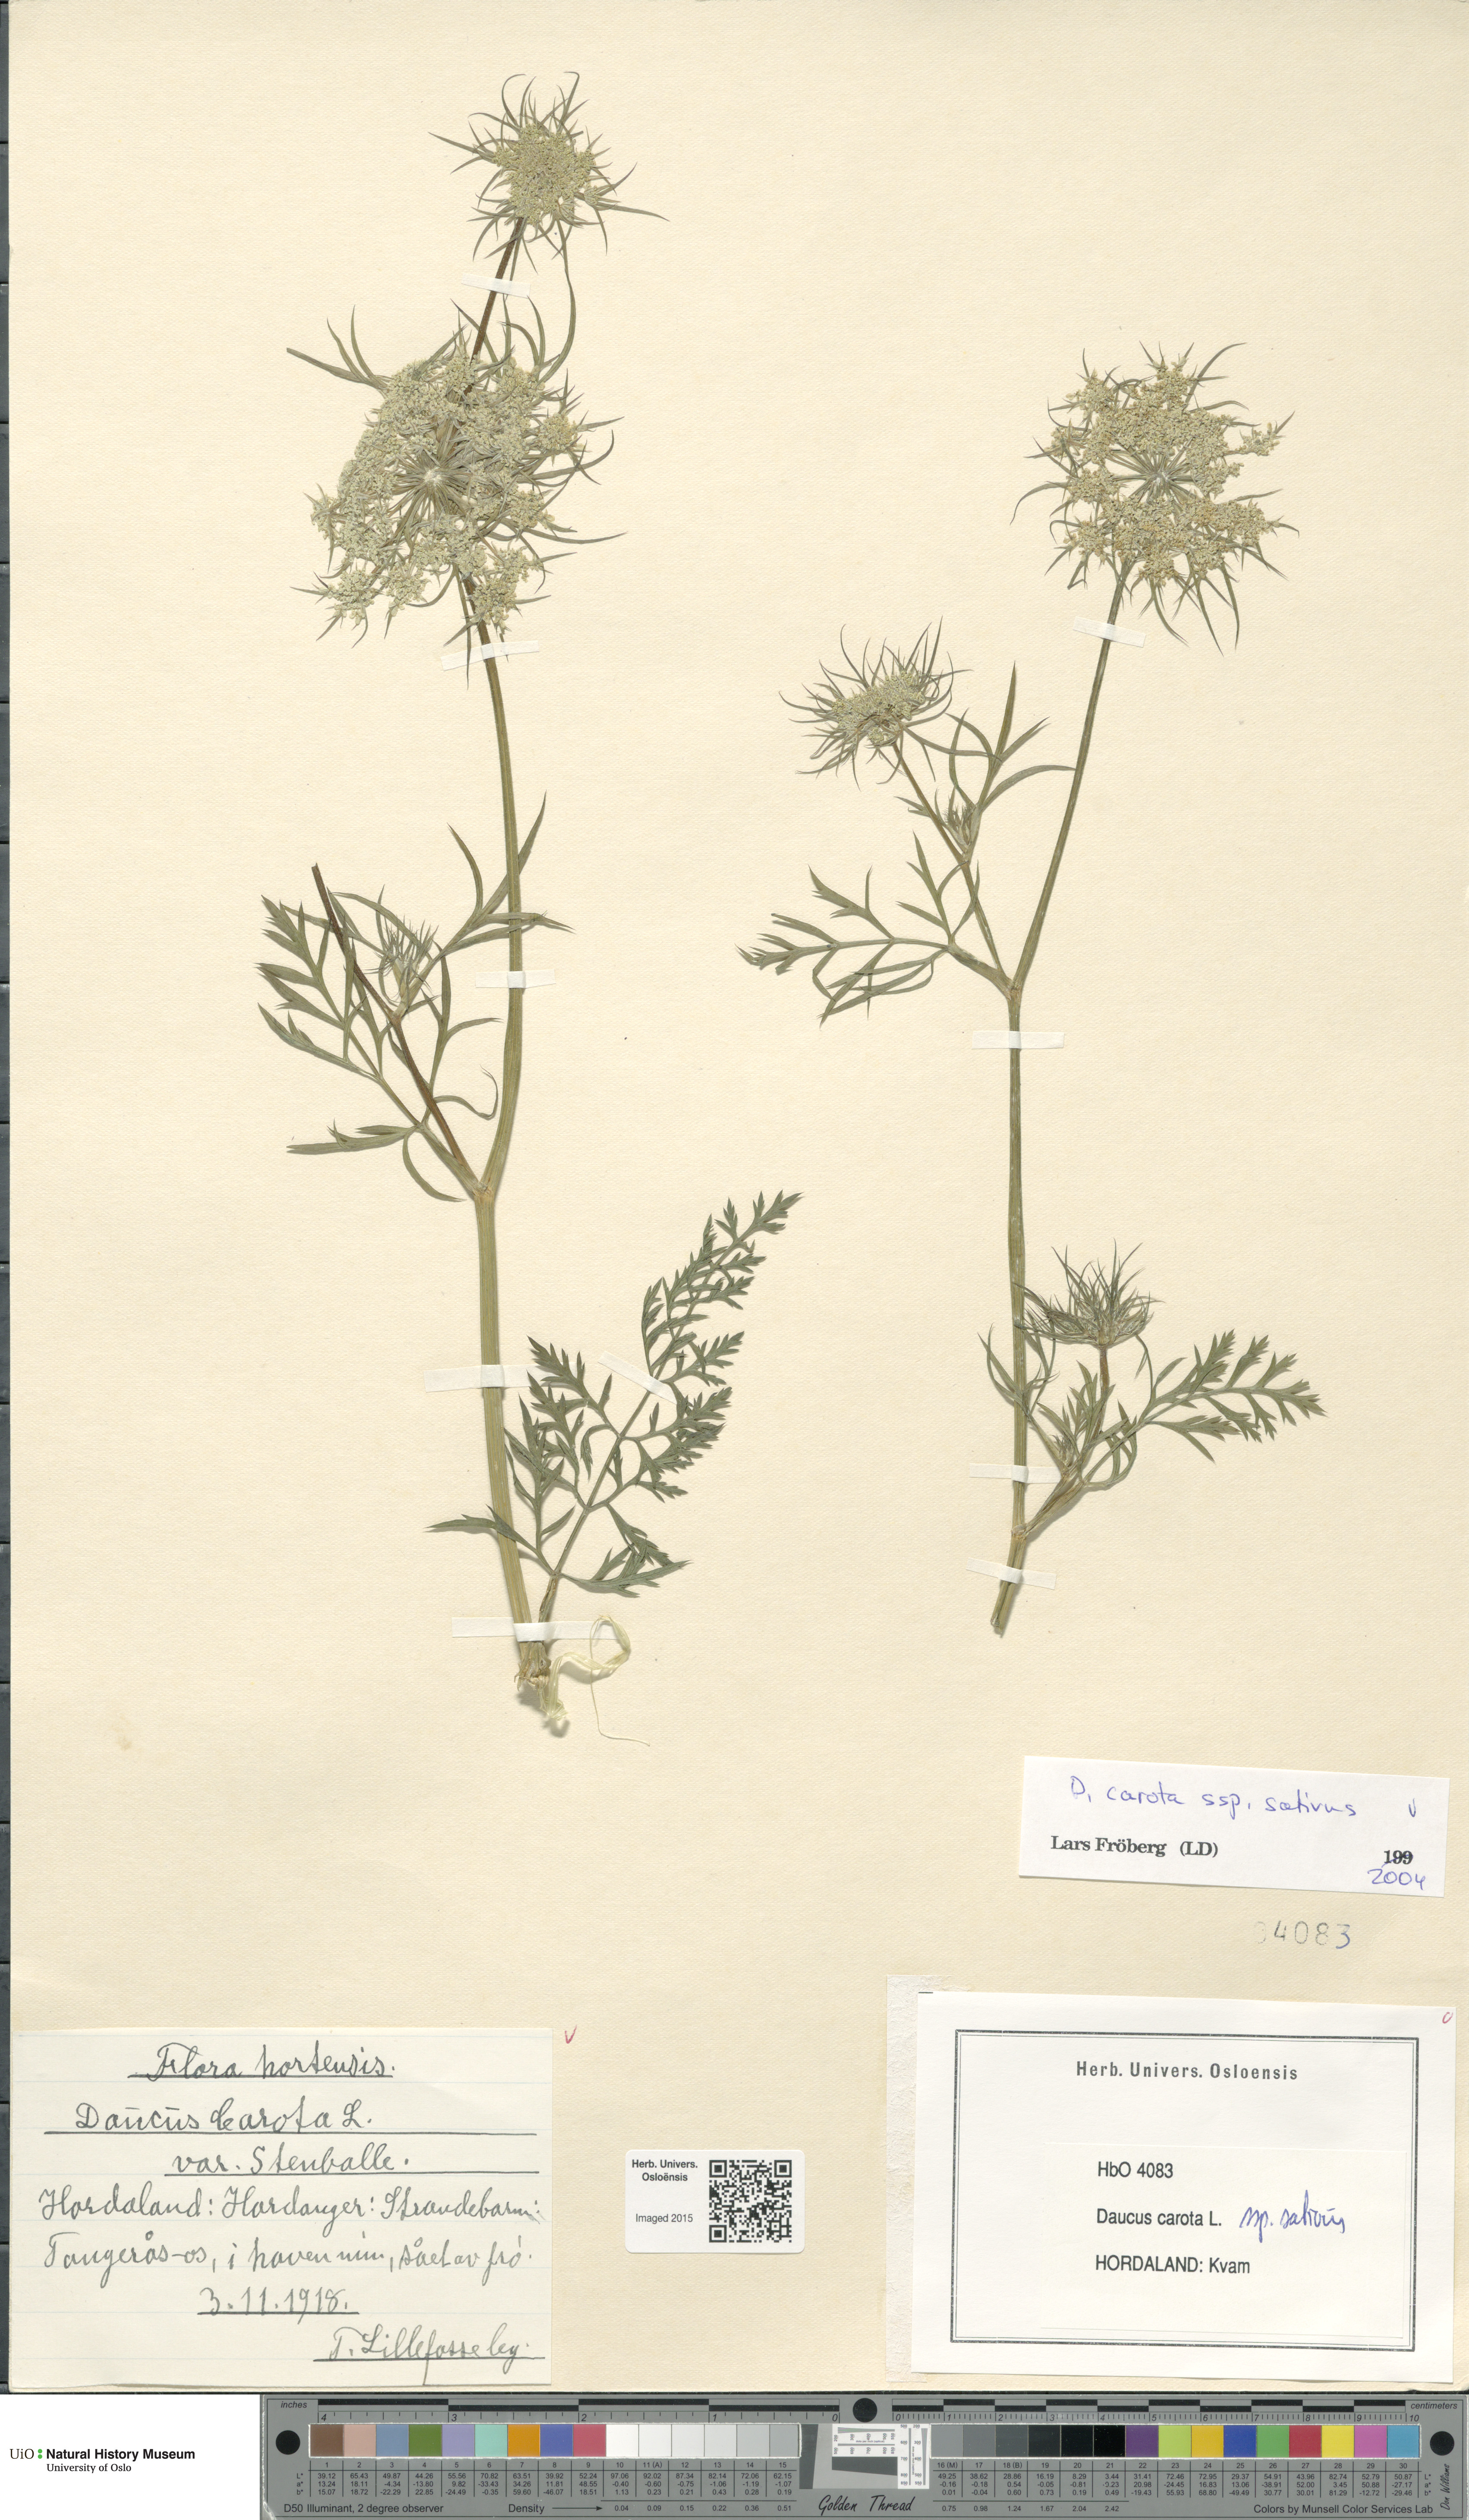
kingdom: Plantae
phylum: Tracheophyta
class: Magnoliopsida
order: Apiales
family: Apiaceae
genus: Daucus
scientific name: Daucus carota
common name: Wild carrot
